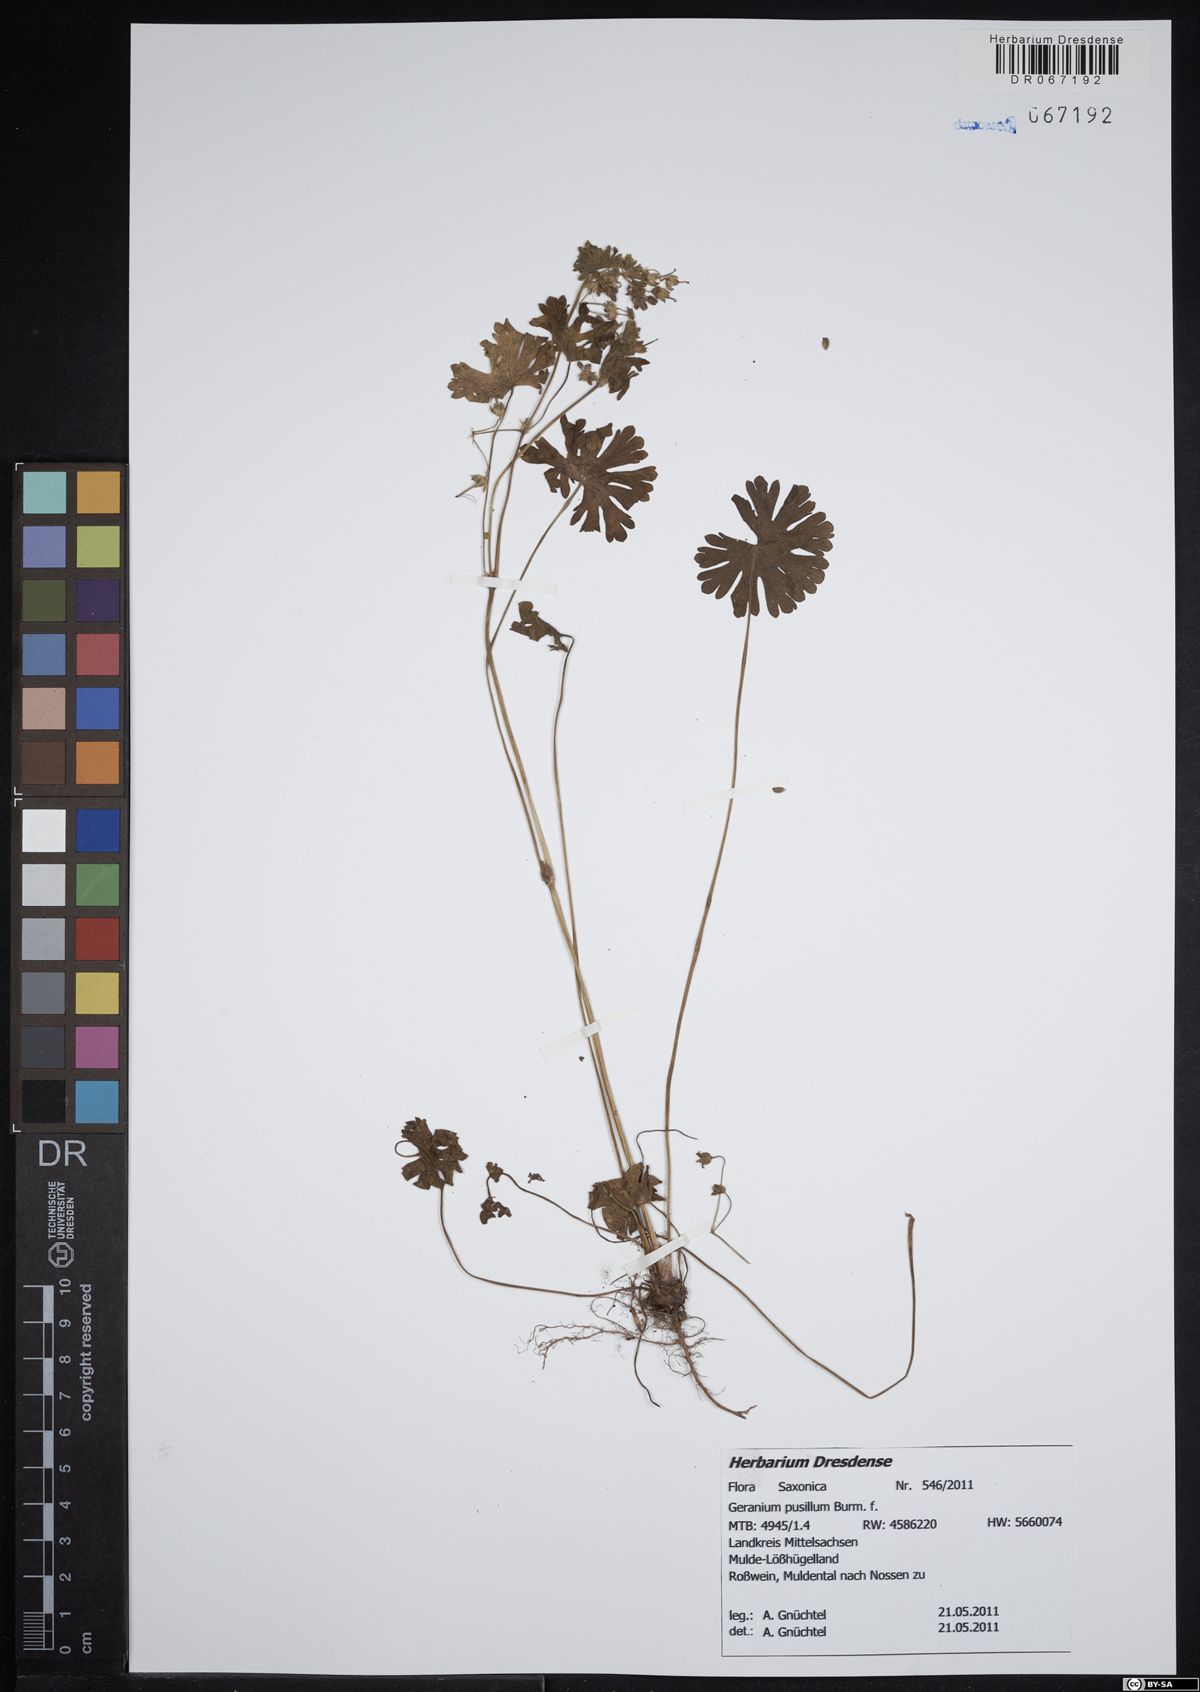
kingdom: Plantae
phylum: Tracheophyta
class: Magnoliopsida
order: Geraniales
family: Geraniaceae
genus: Geranium
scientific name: Geranium pusillum
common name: Small geranium
